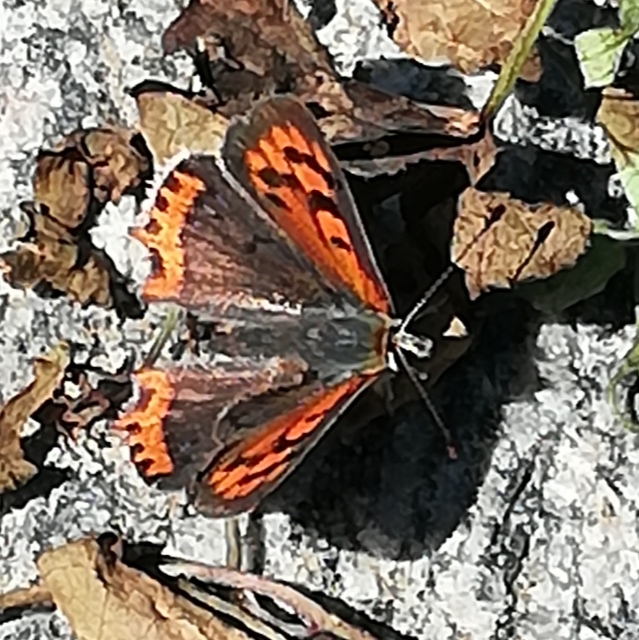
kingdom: Animalia
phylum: Arthropoda
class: Insecta
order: Lepidoptera
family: Lycaenidae
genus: Lycaena
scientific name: Lycaena phlaeas
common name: Lille ildfugl
